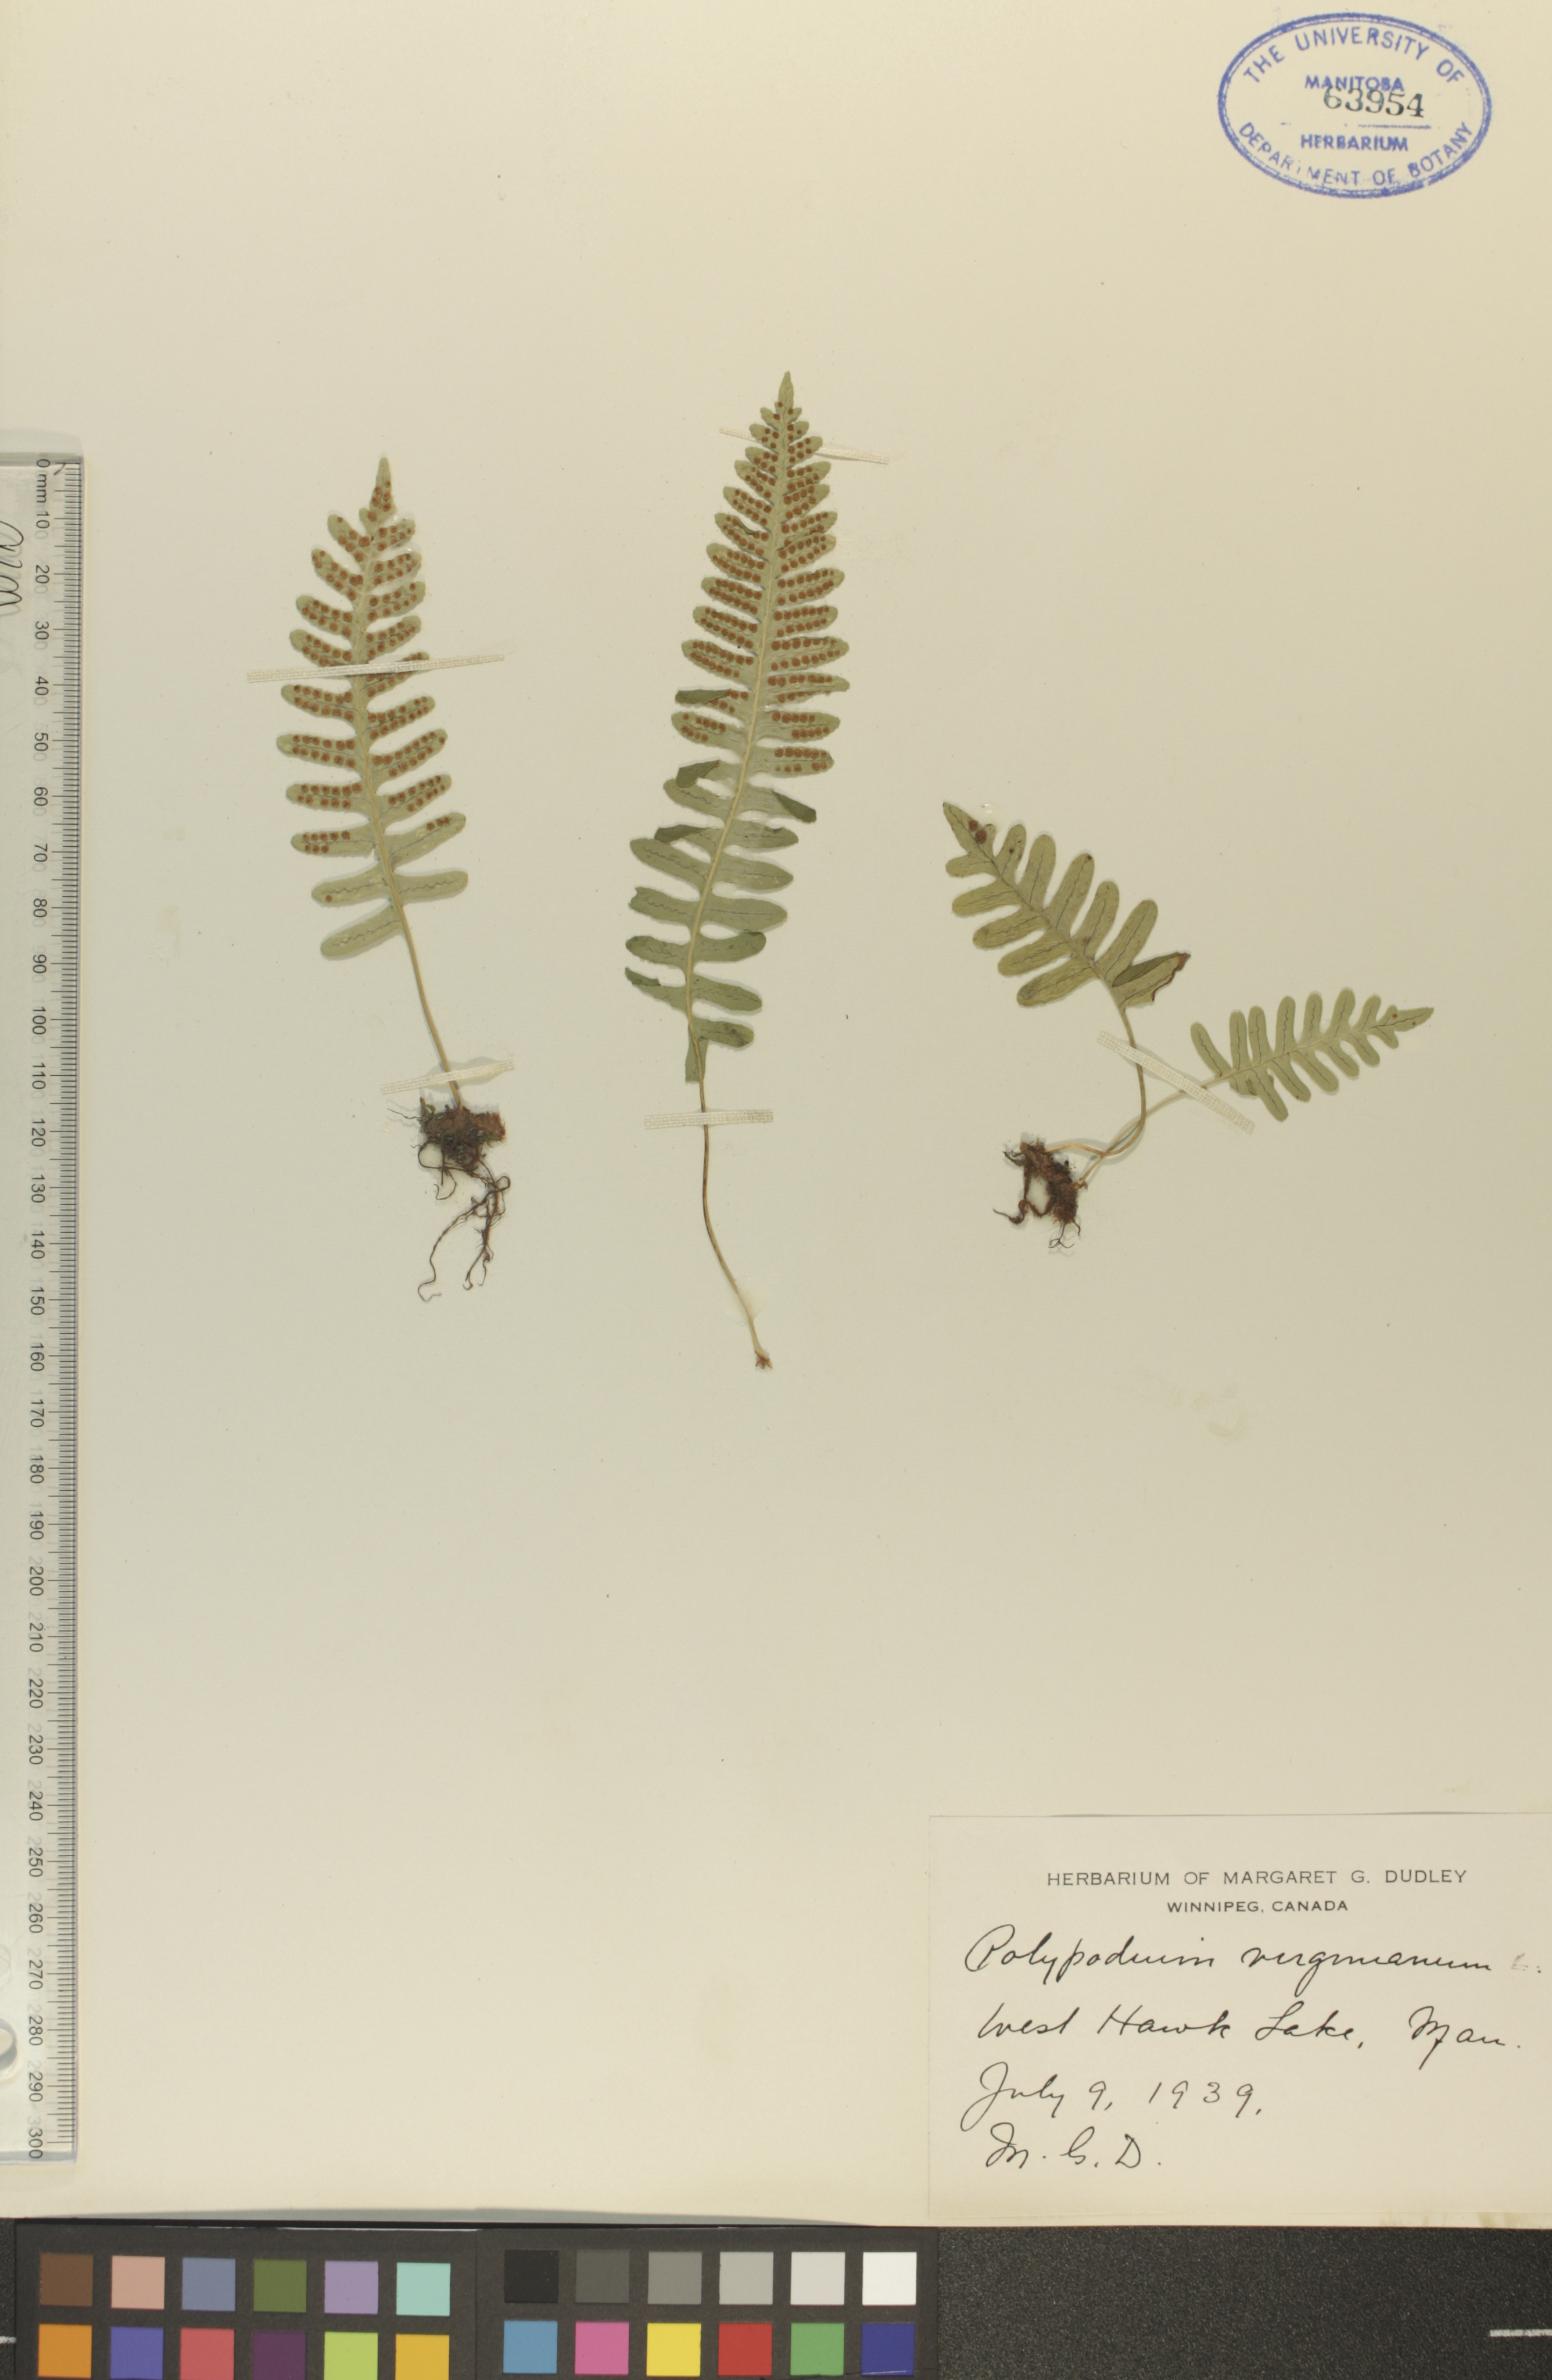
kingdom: Plantae
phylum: Tracheophyta
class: Polypodiopsida
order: Polypodiales
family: Polypodiaceae
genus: Polypodium
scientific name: Polypodium virginianum
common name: American wall fern
